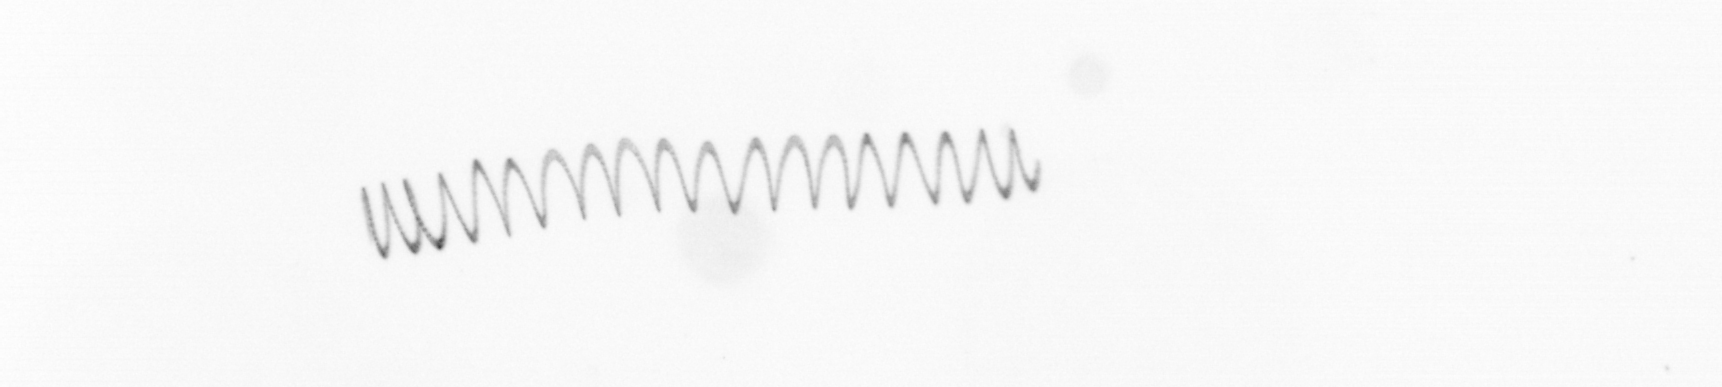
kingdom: Chromista
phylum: Ochrophyta
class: Bacillariophyceae
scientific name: Bacillariophyceae
